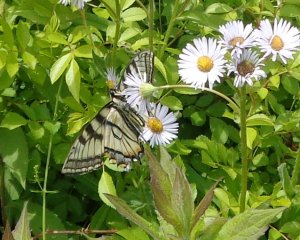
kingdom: Animalia
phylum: Arthropoda
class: Insecta
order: Lepidoptera
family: Papilionidae
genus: Pterourus
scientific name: Pterourus canadensis
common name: Canadian Tiger Swallowtail
